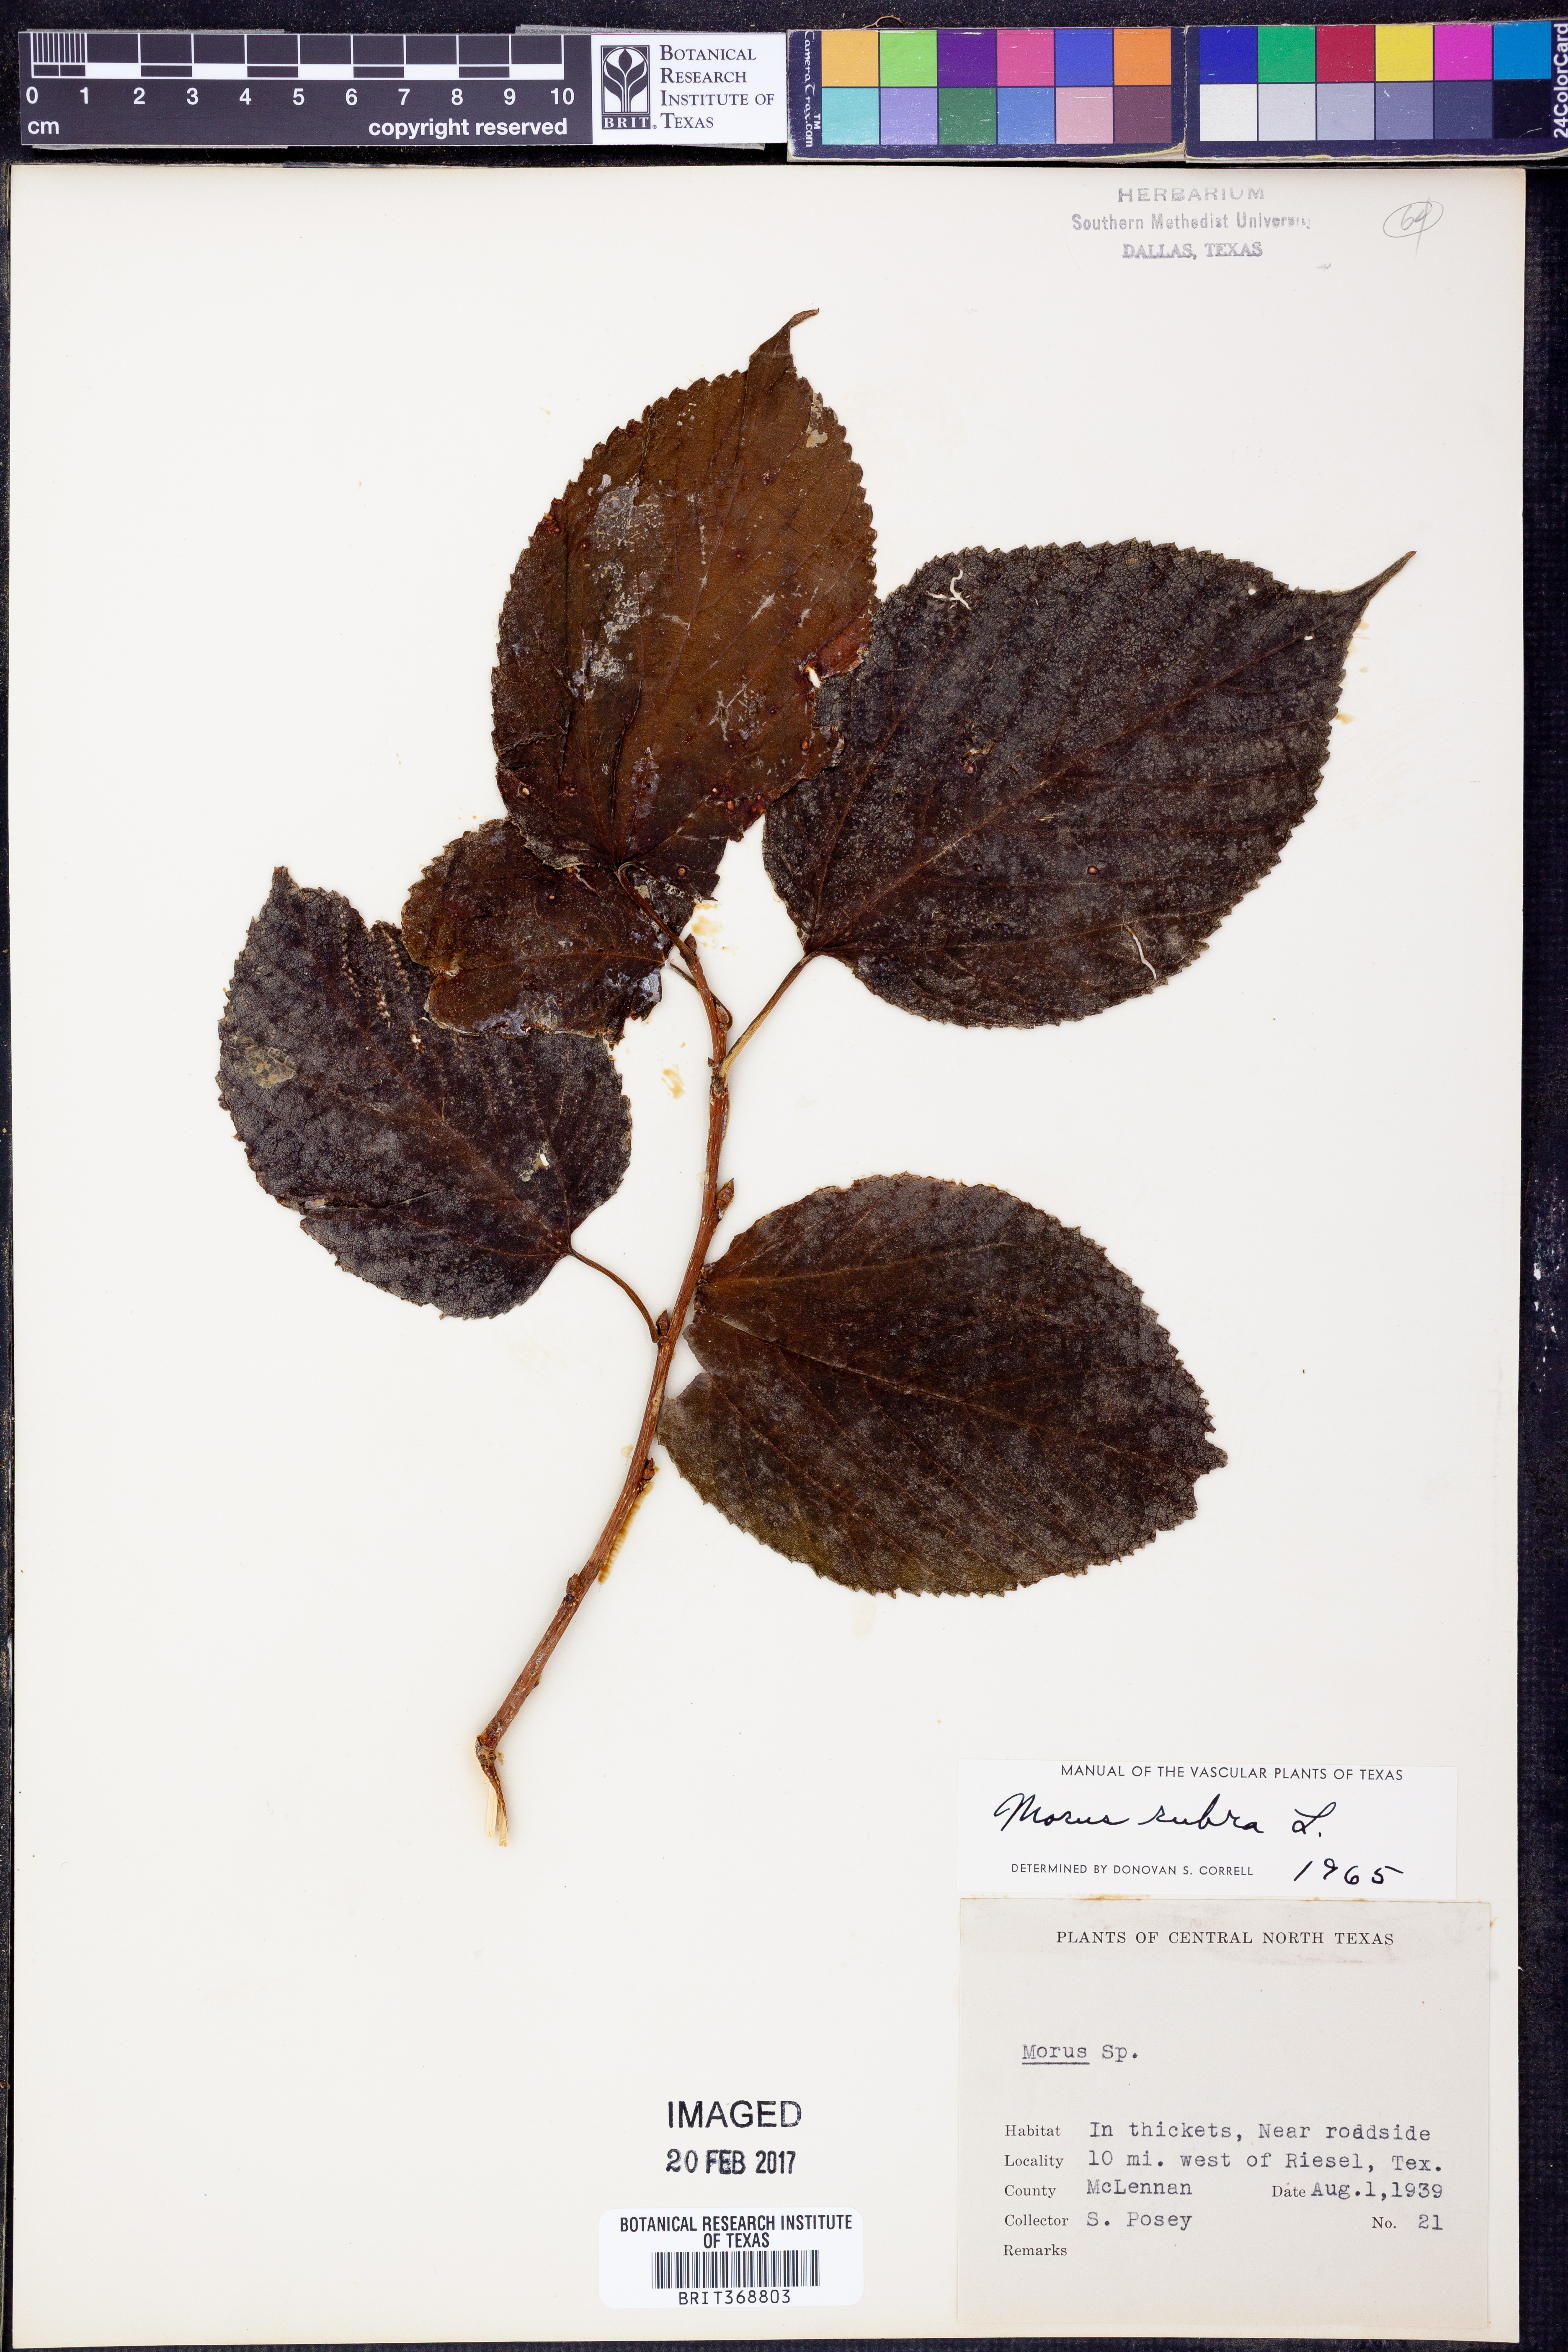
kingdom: Plantae
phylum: Tracheophyta
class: Magnoliopsida
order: Rosales
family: Moraceae
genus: Morus
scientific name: Morus rubra
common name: Red mulberry
